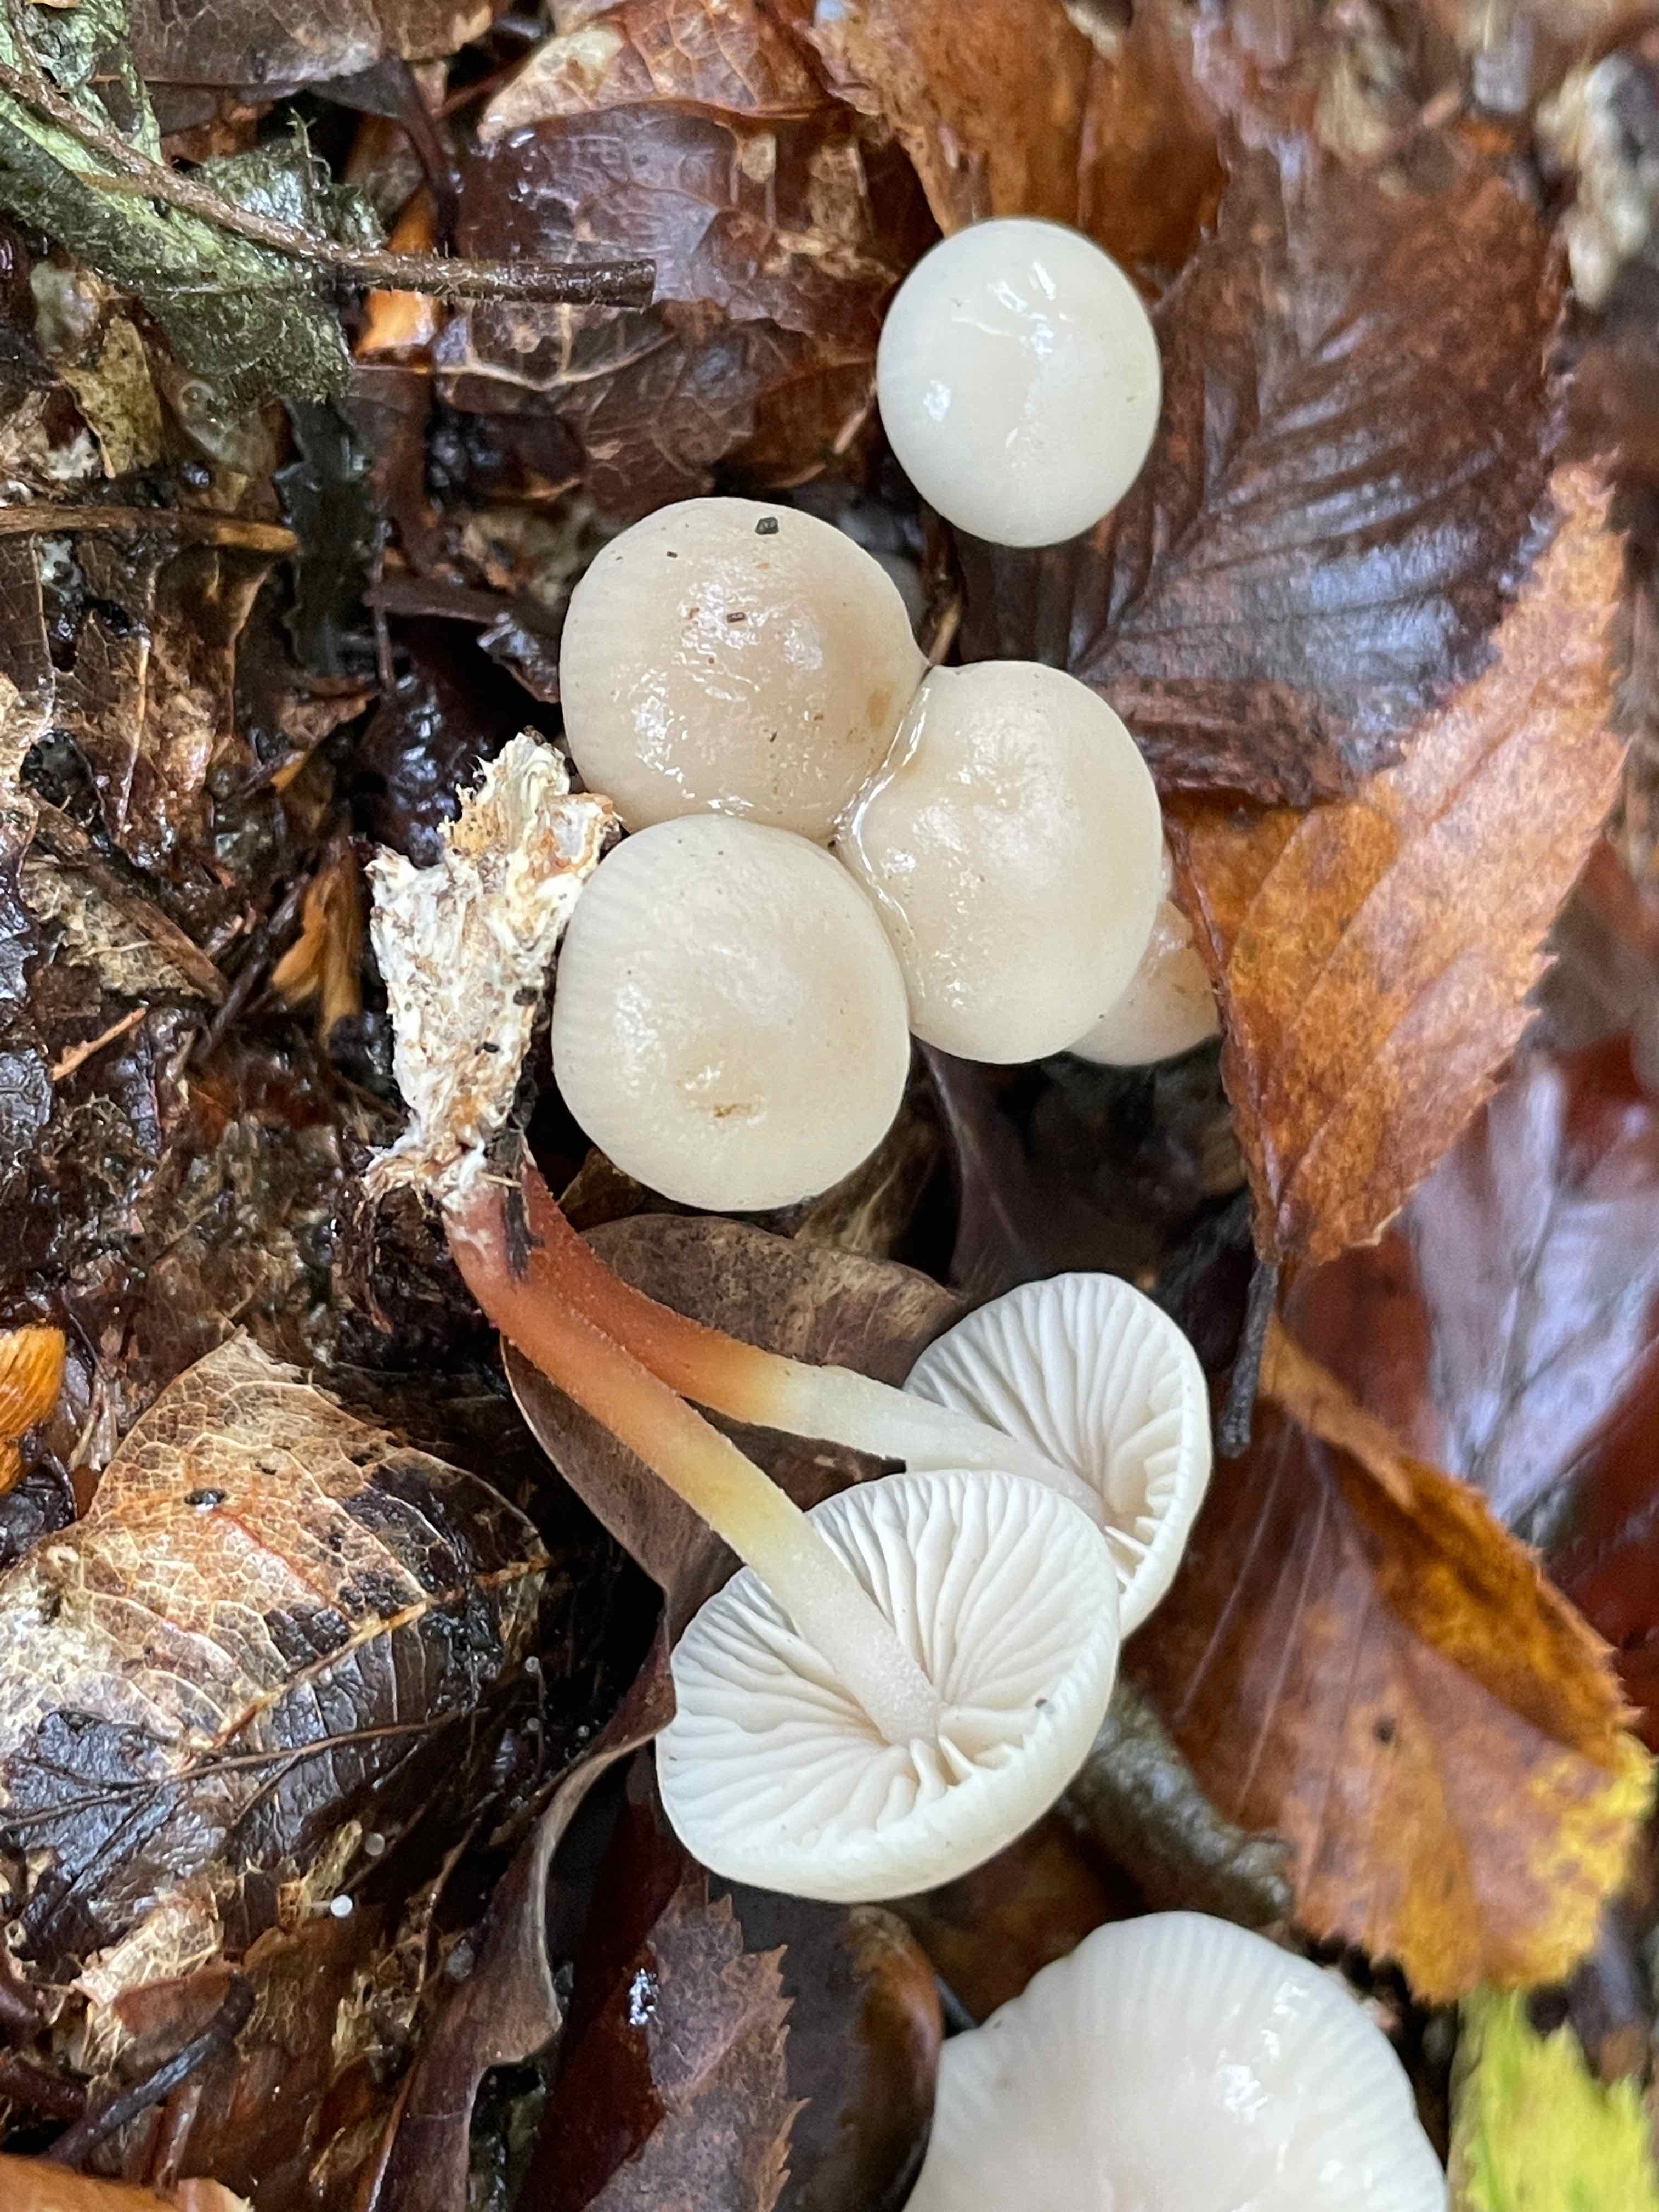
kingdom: Fungi
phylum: Basidiomycota
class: Agaricomycetes
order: Agaricales
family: Marasmiaceae
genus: Marasmius
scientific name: Marasmius wynneae
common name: hvælvet bruskhat
